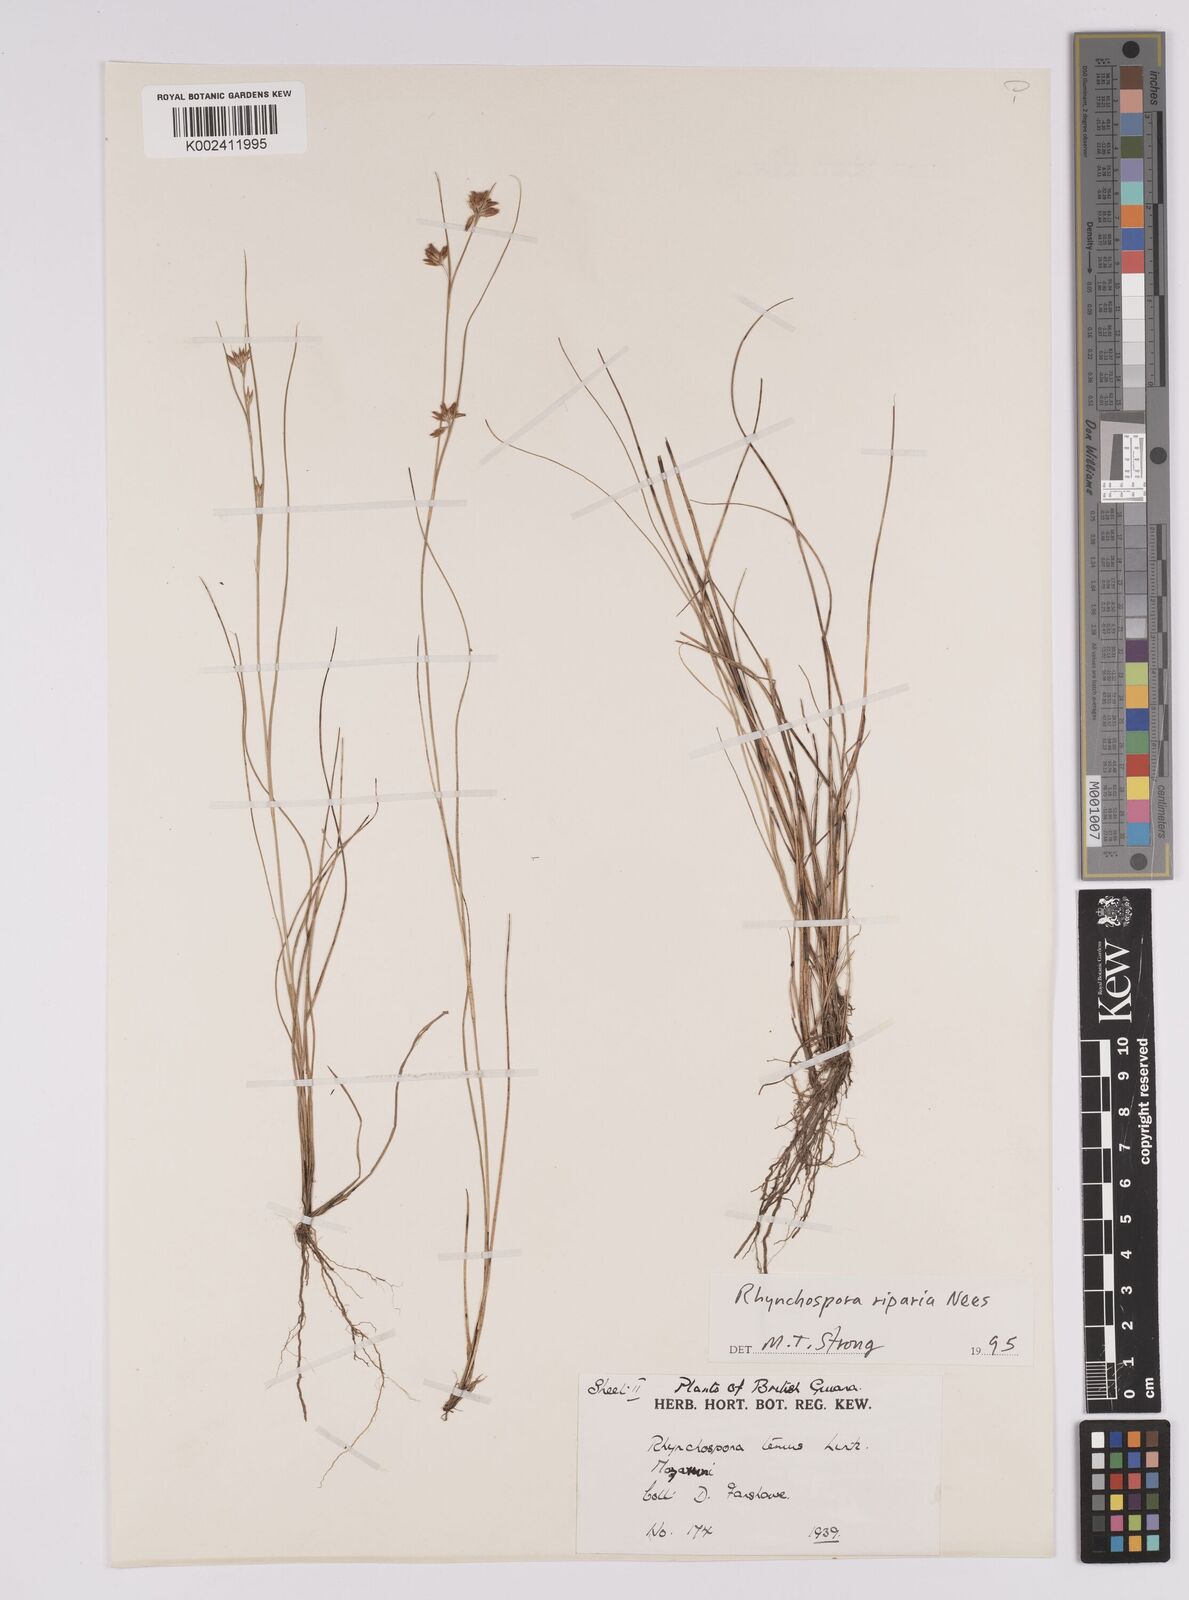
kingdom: Plantae
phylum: Tracheophyta
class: Liliopsida
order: Poales
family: Cyperaceae
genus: Rhynchospora
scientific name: Rhynchospora riparia
